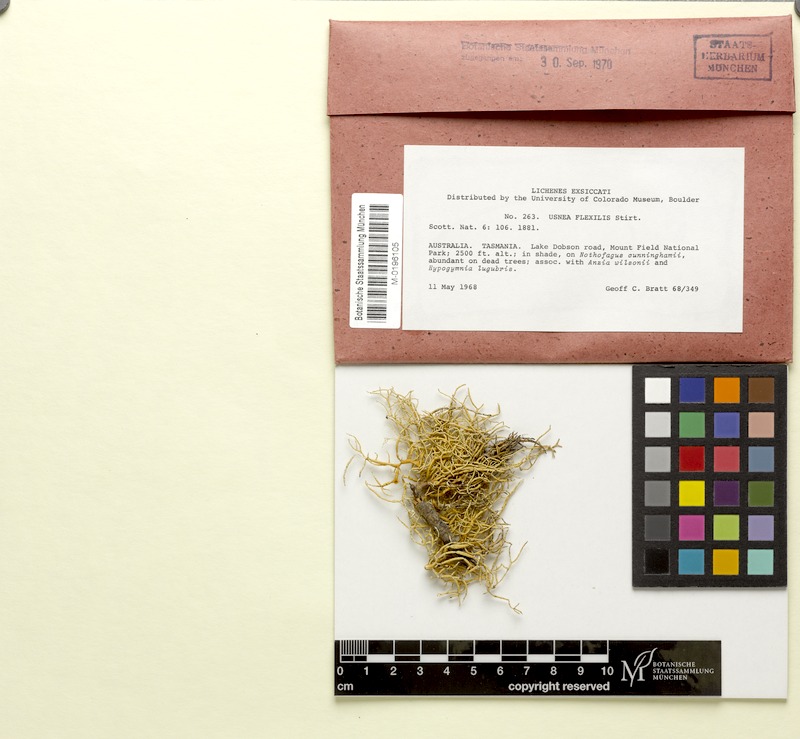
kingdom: Fungi
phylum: Ascomycota
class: Lecanoromycetes
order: Lecanorales
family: Parmeliaceae
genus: Usnea
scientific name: Usnea flexilis
